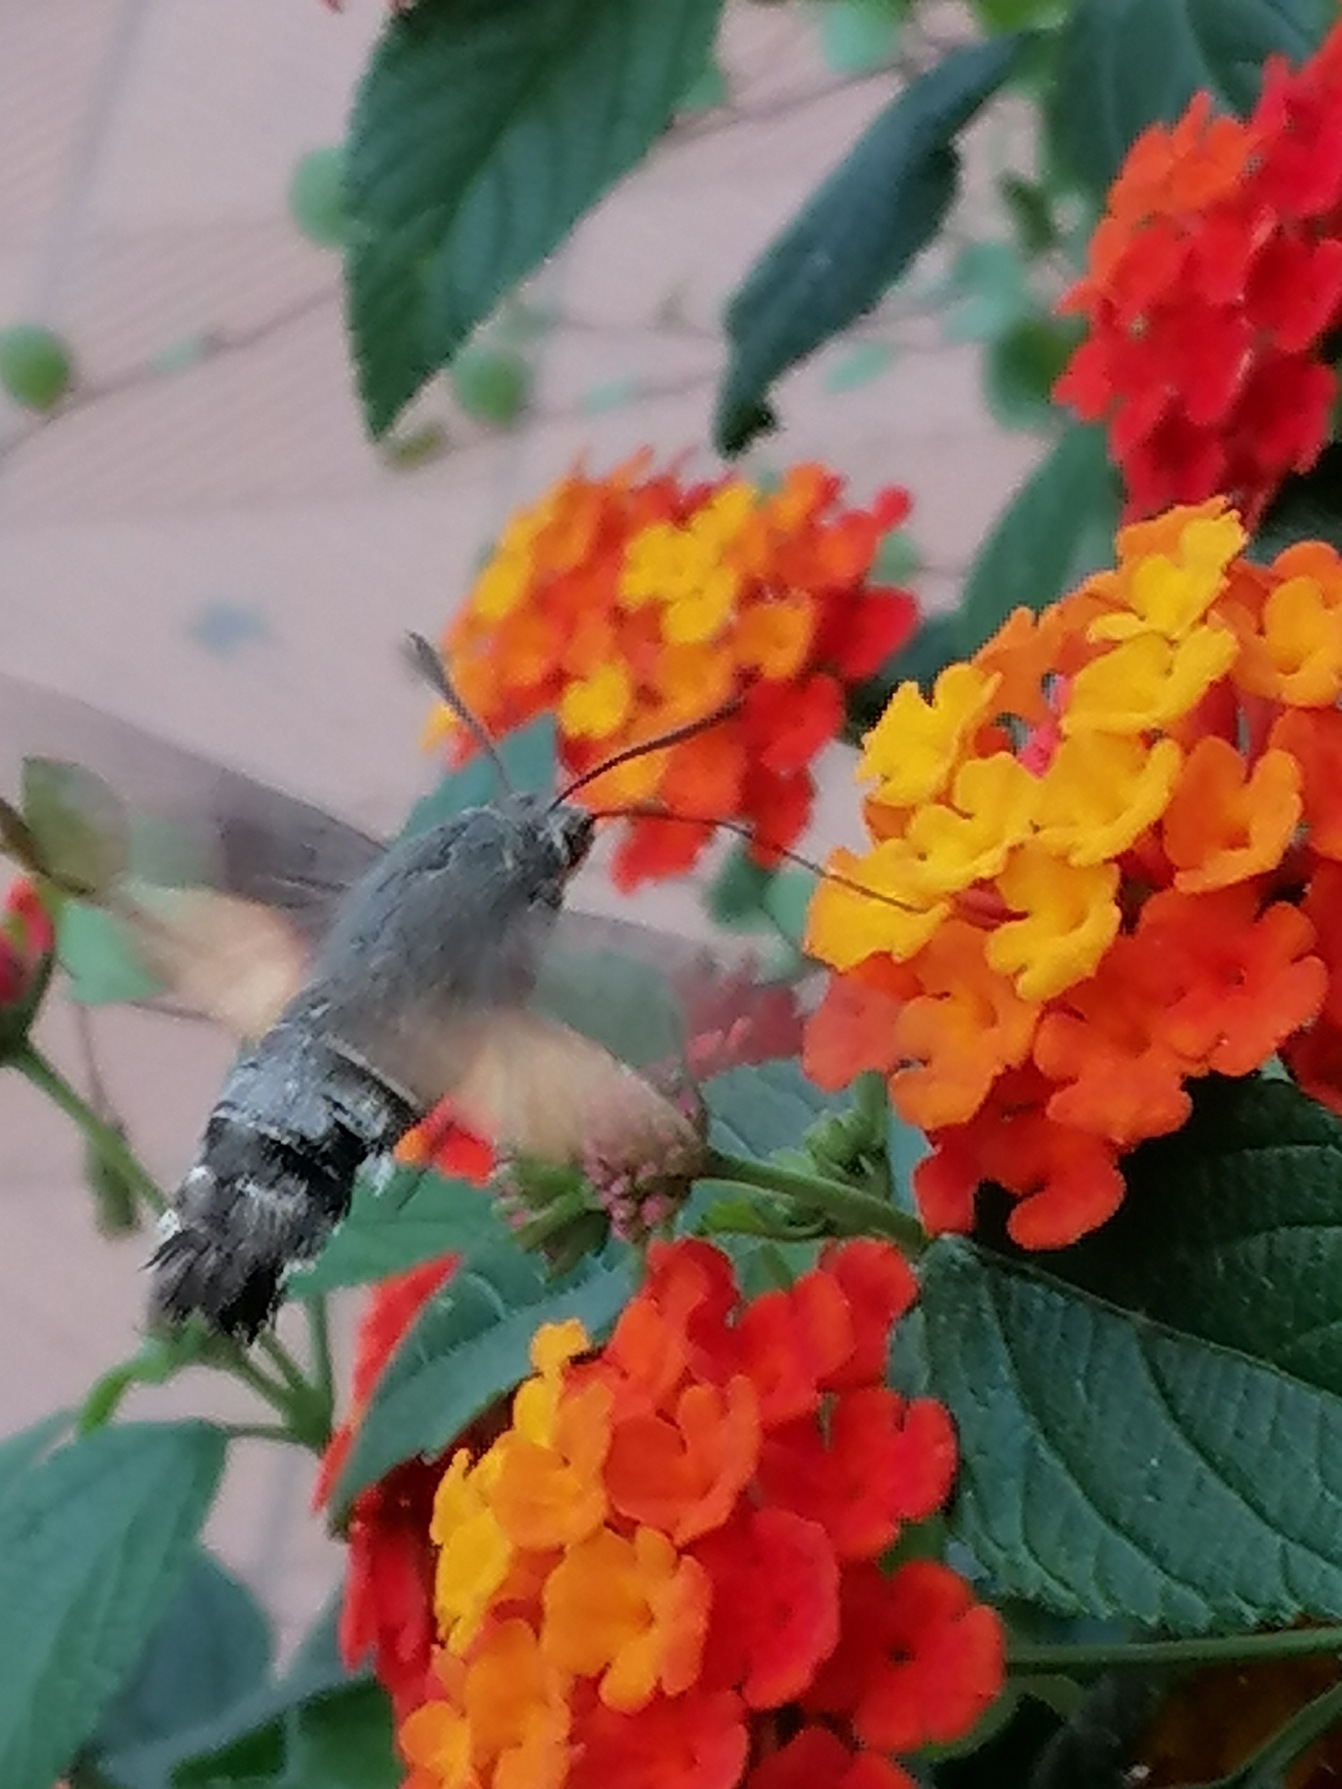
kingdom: Animalia
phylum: Arthropoda
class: Insecta
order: Lepidoptera
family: Sphingidae
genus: Macroglossum
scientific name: Macroglossum stellatarum
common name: Duehale
